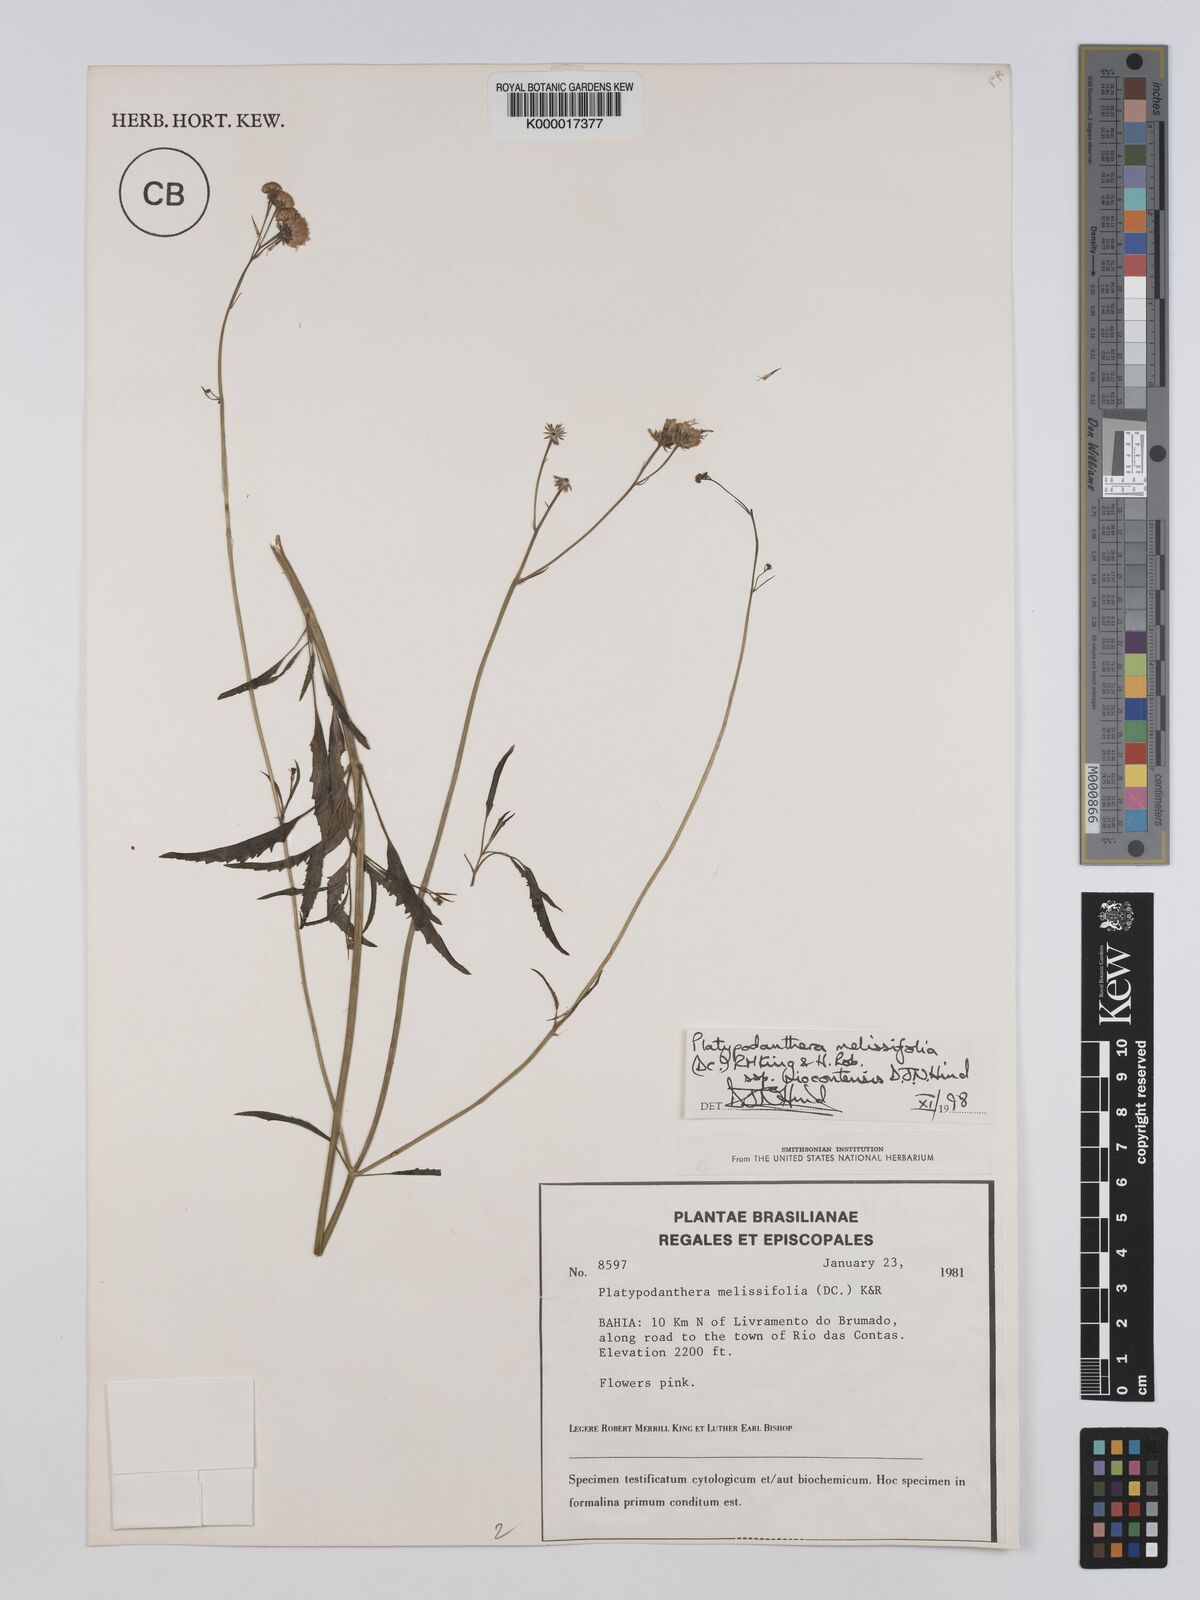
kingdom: Plantae
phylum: Tracheophyta
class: Magnoliopsida
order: Asterales
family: Asteraceae
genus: Platypodanthera
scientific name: Platypodanthera melissifolia
